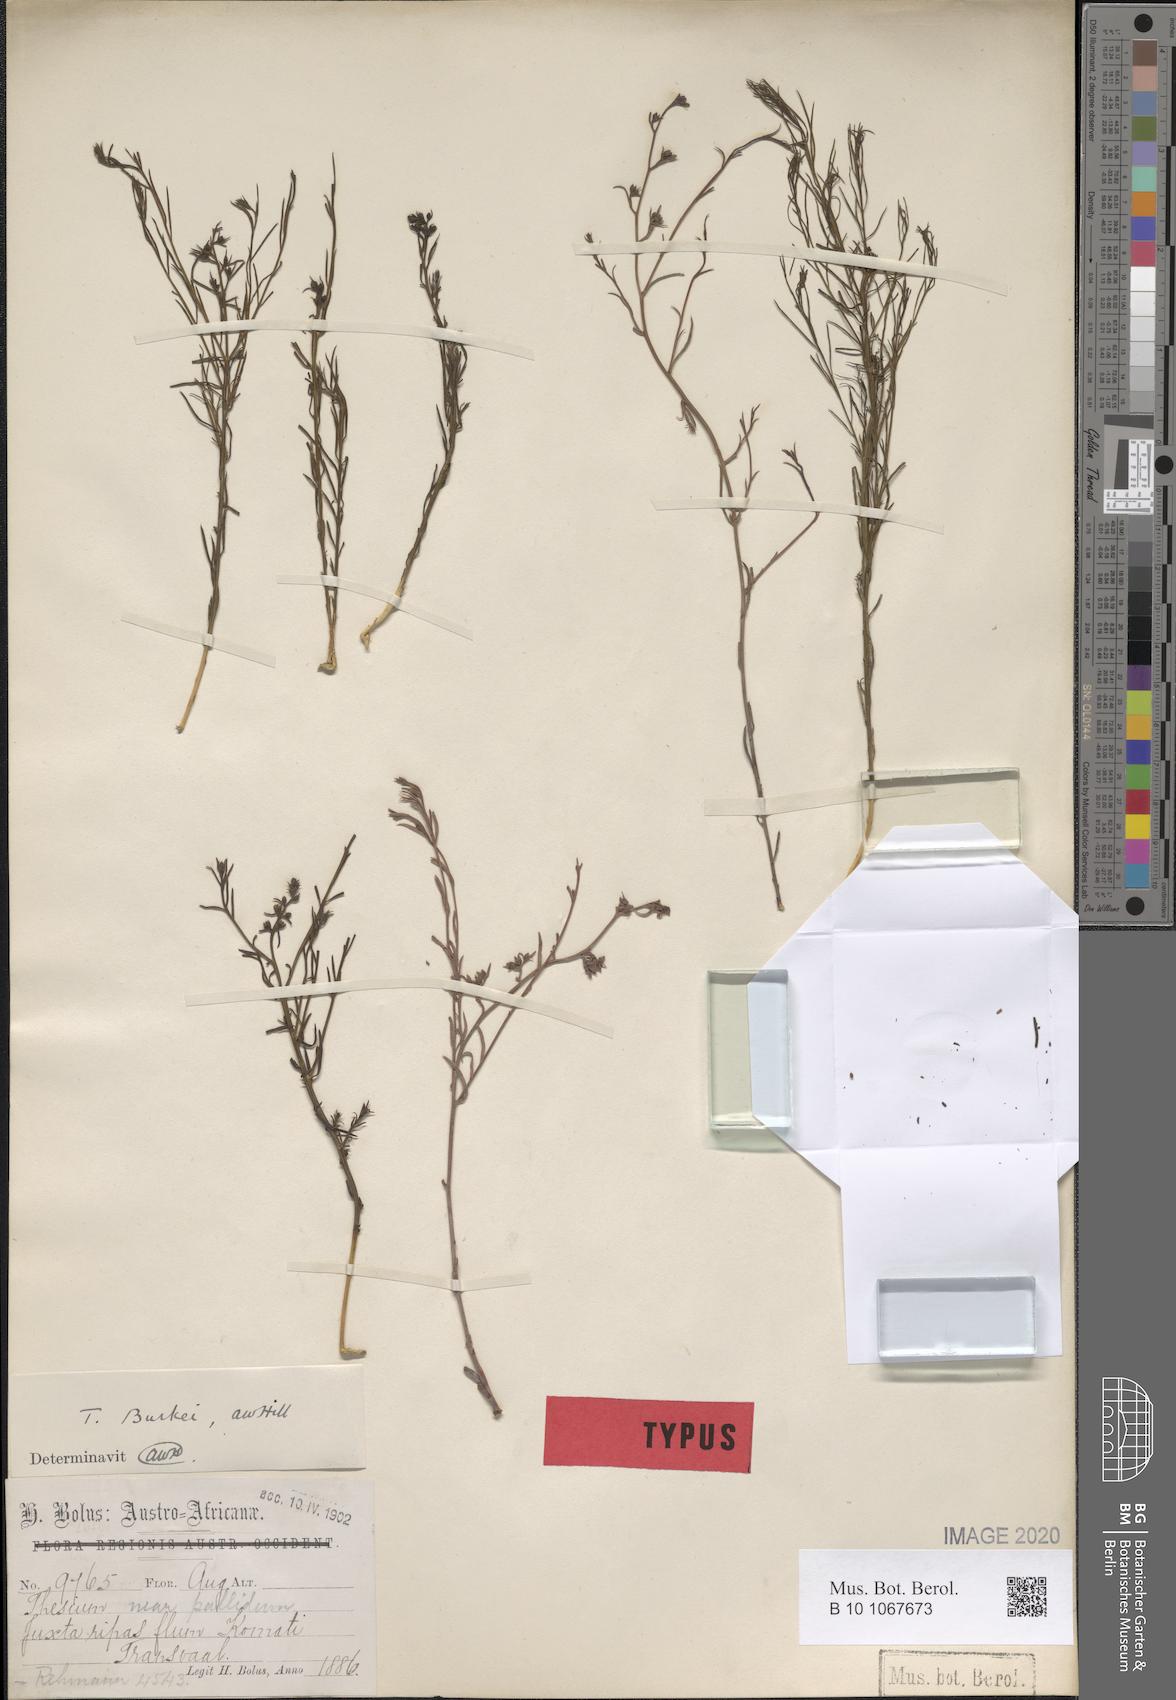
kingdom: Plantae
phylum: Tracheophyta
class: Magnoliopsida
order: Santalales
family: Thesiaceae
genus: Thesium
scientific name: Thesium resedoides
